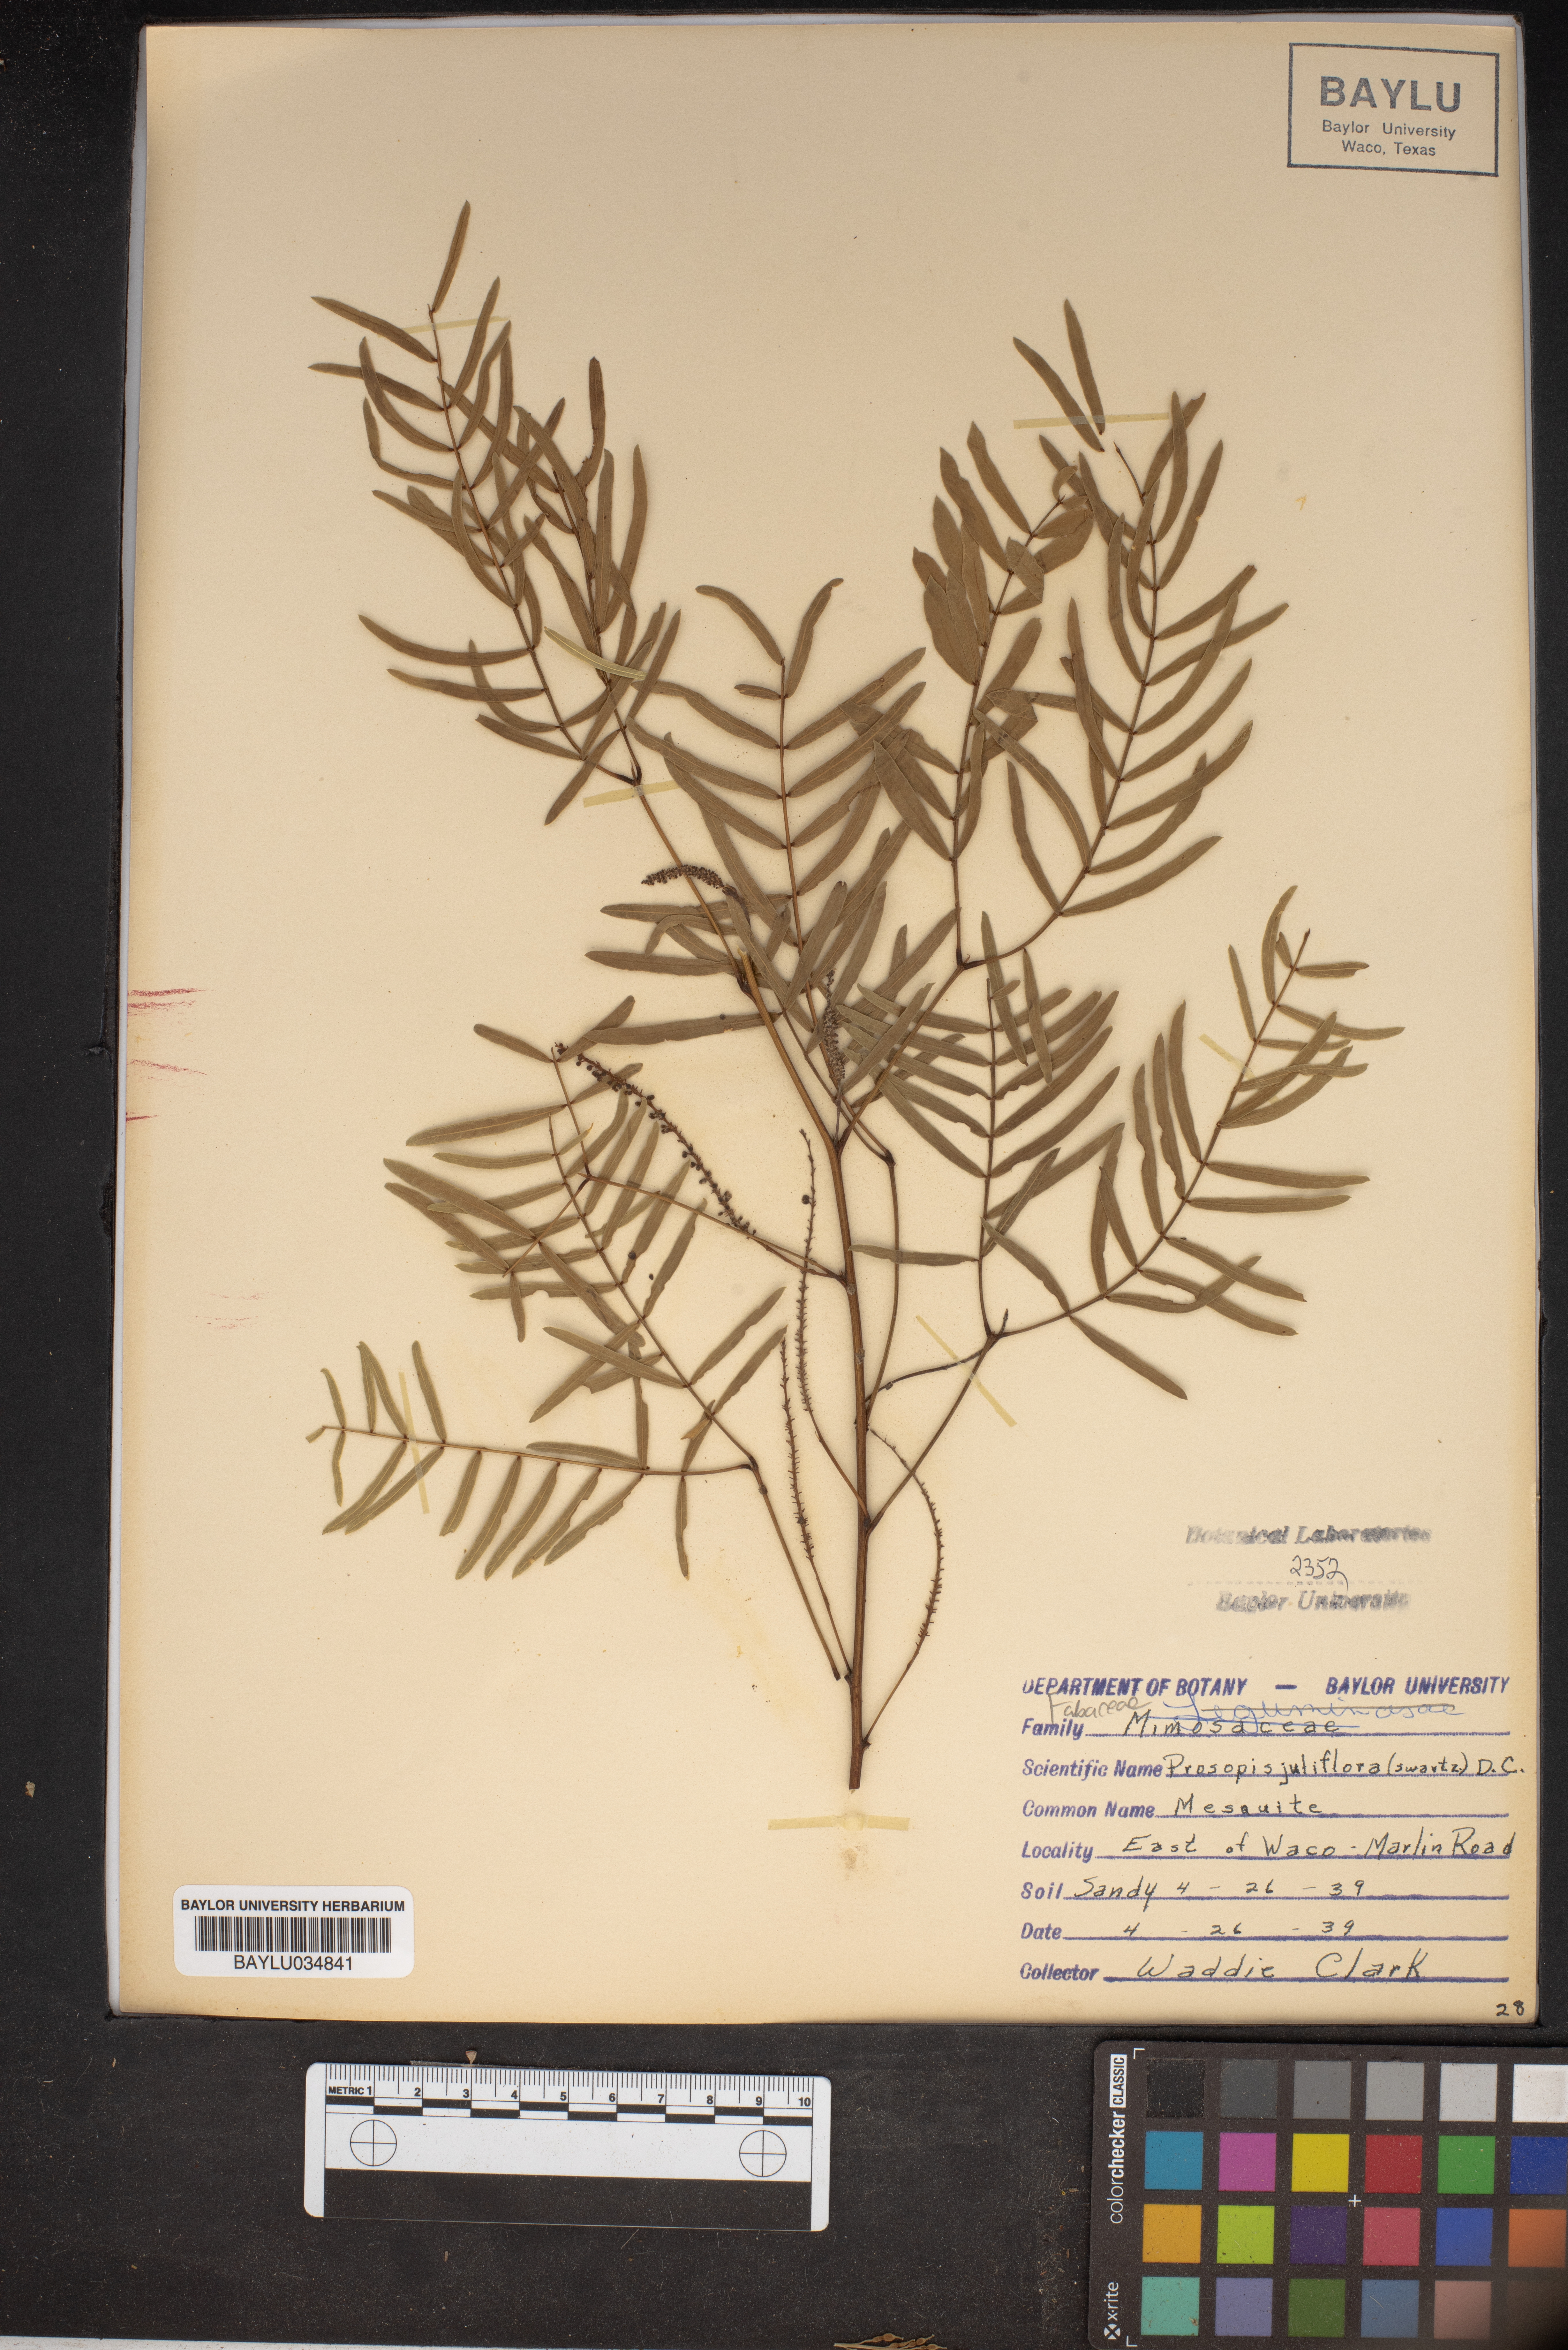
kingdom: Plantae
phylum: Tracheophyta
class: Magnoliopsida
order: Fabales
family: Fabaceae
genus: Prosopis
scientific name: Prosopis juliflora
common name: Mesquite
